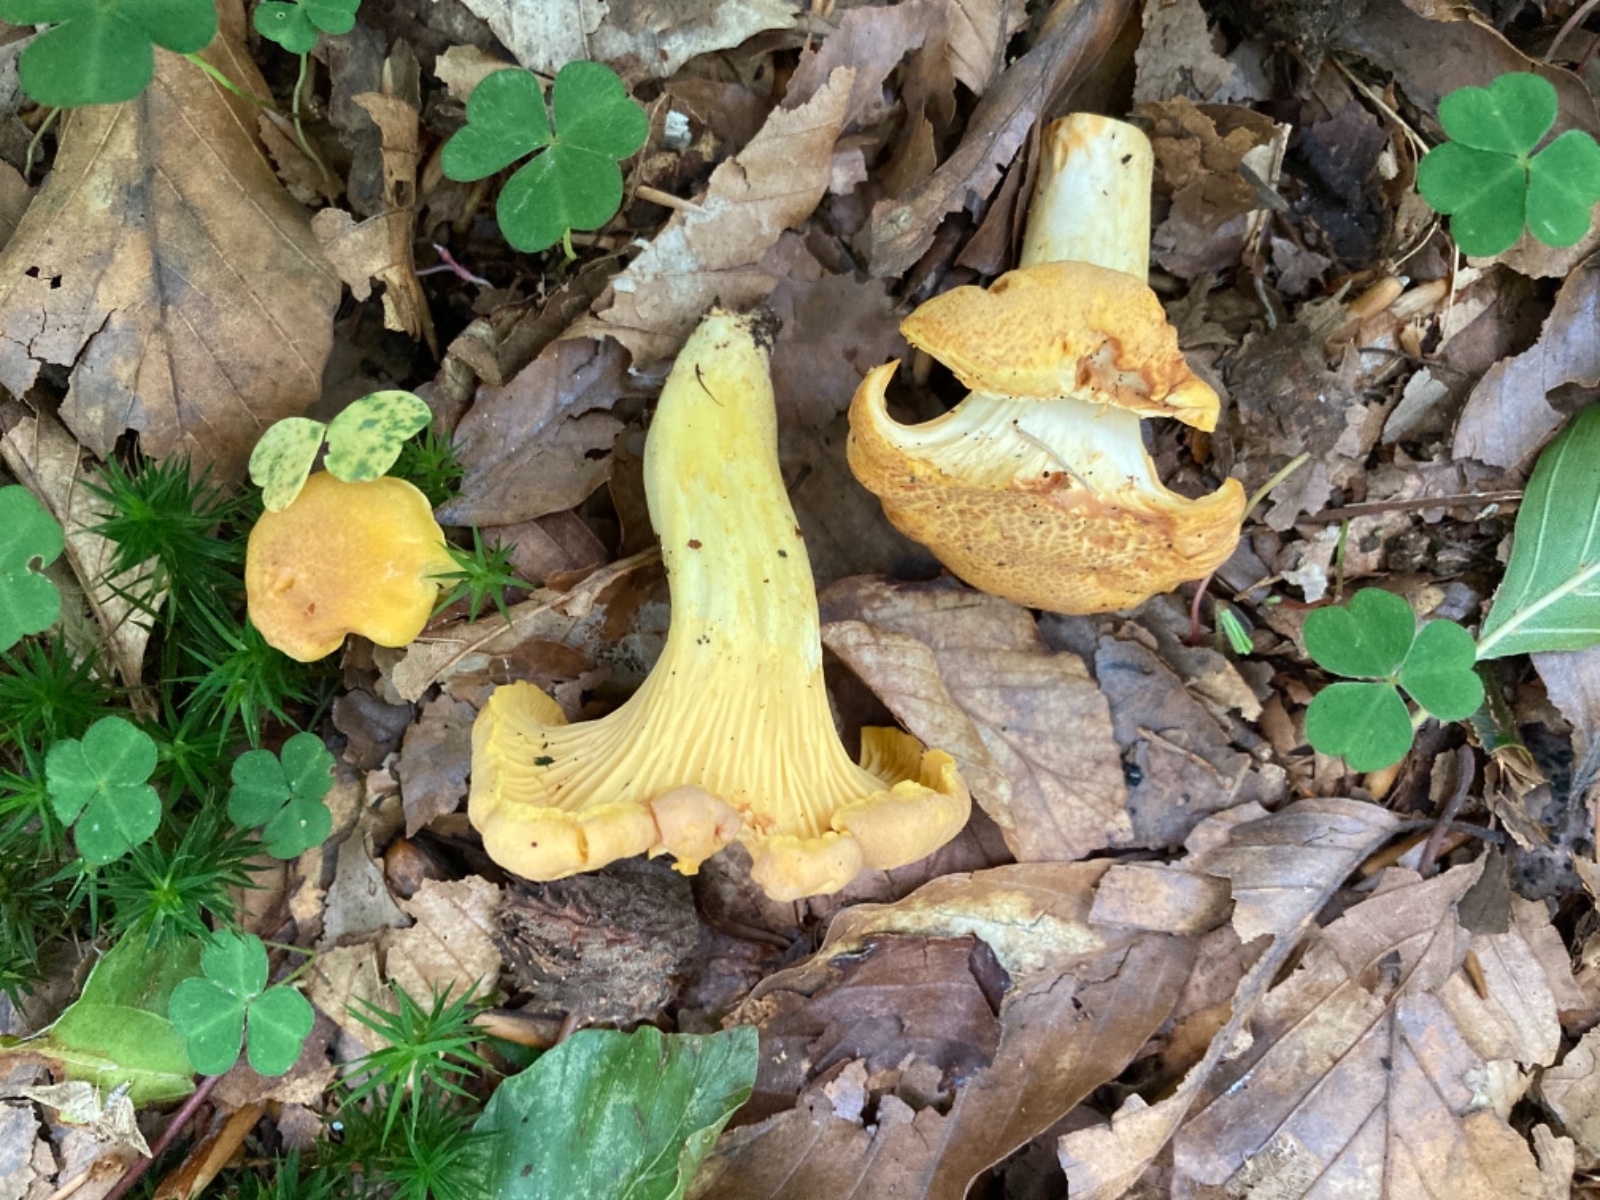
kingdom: Fungi
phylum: Basidiomycota
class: Agaricomycetes
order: Cantharellales
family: Hydnaceae
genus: Cantharellus
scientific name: Cantharellus amethysteus
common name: ametyst-kantarel
